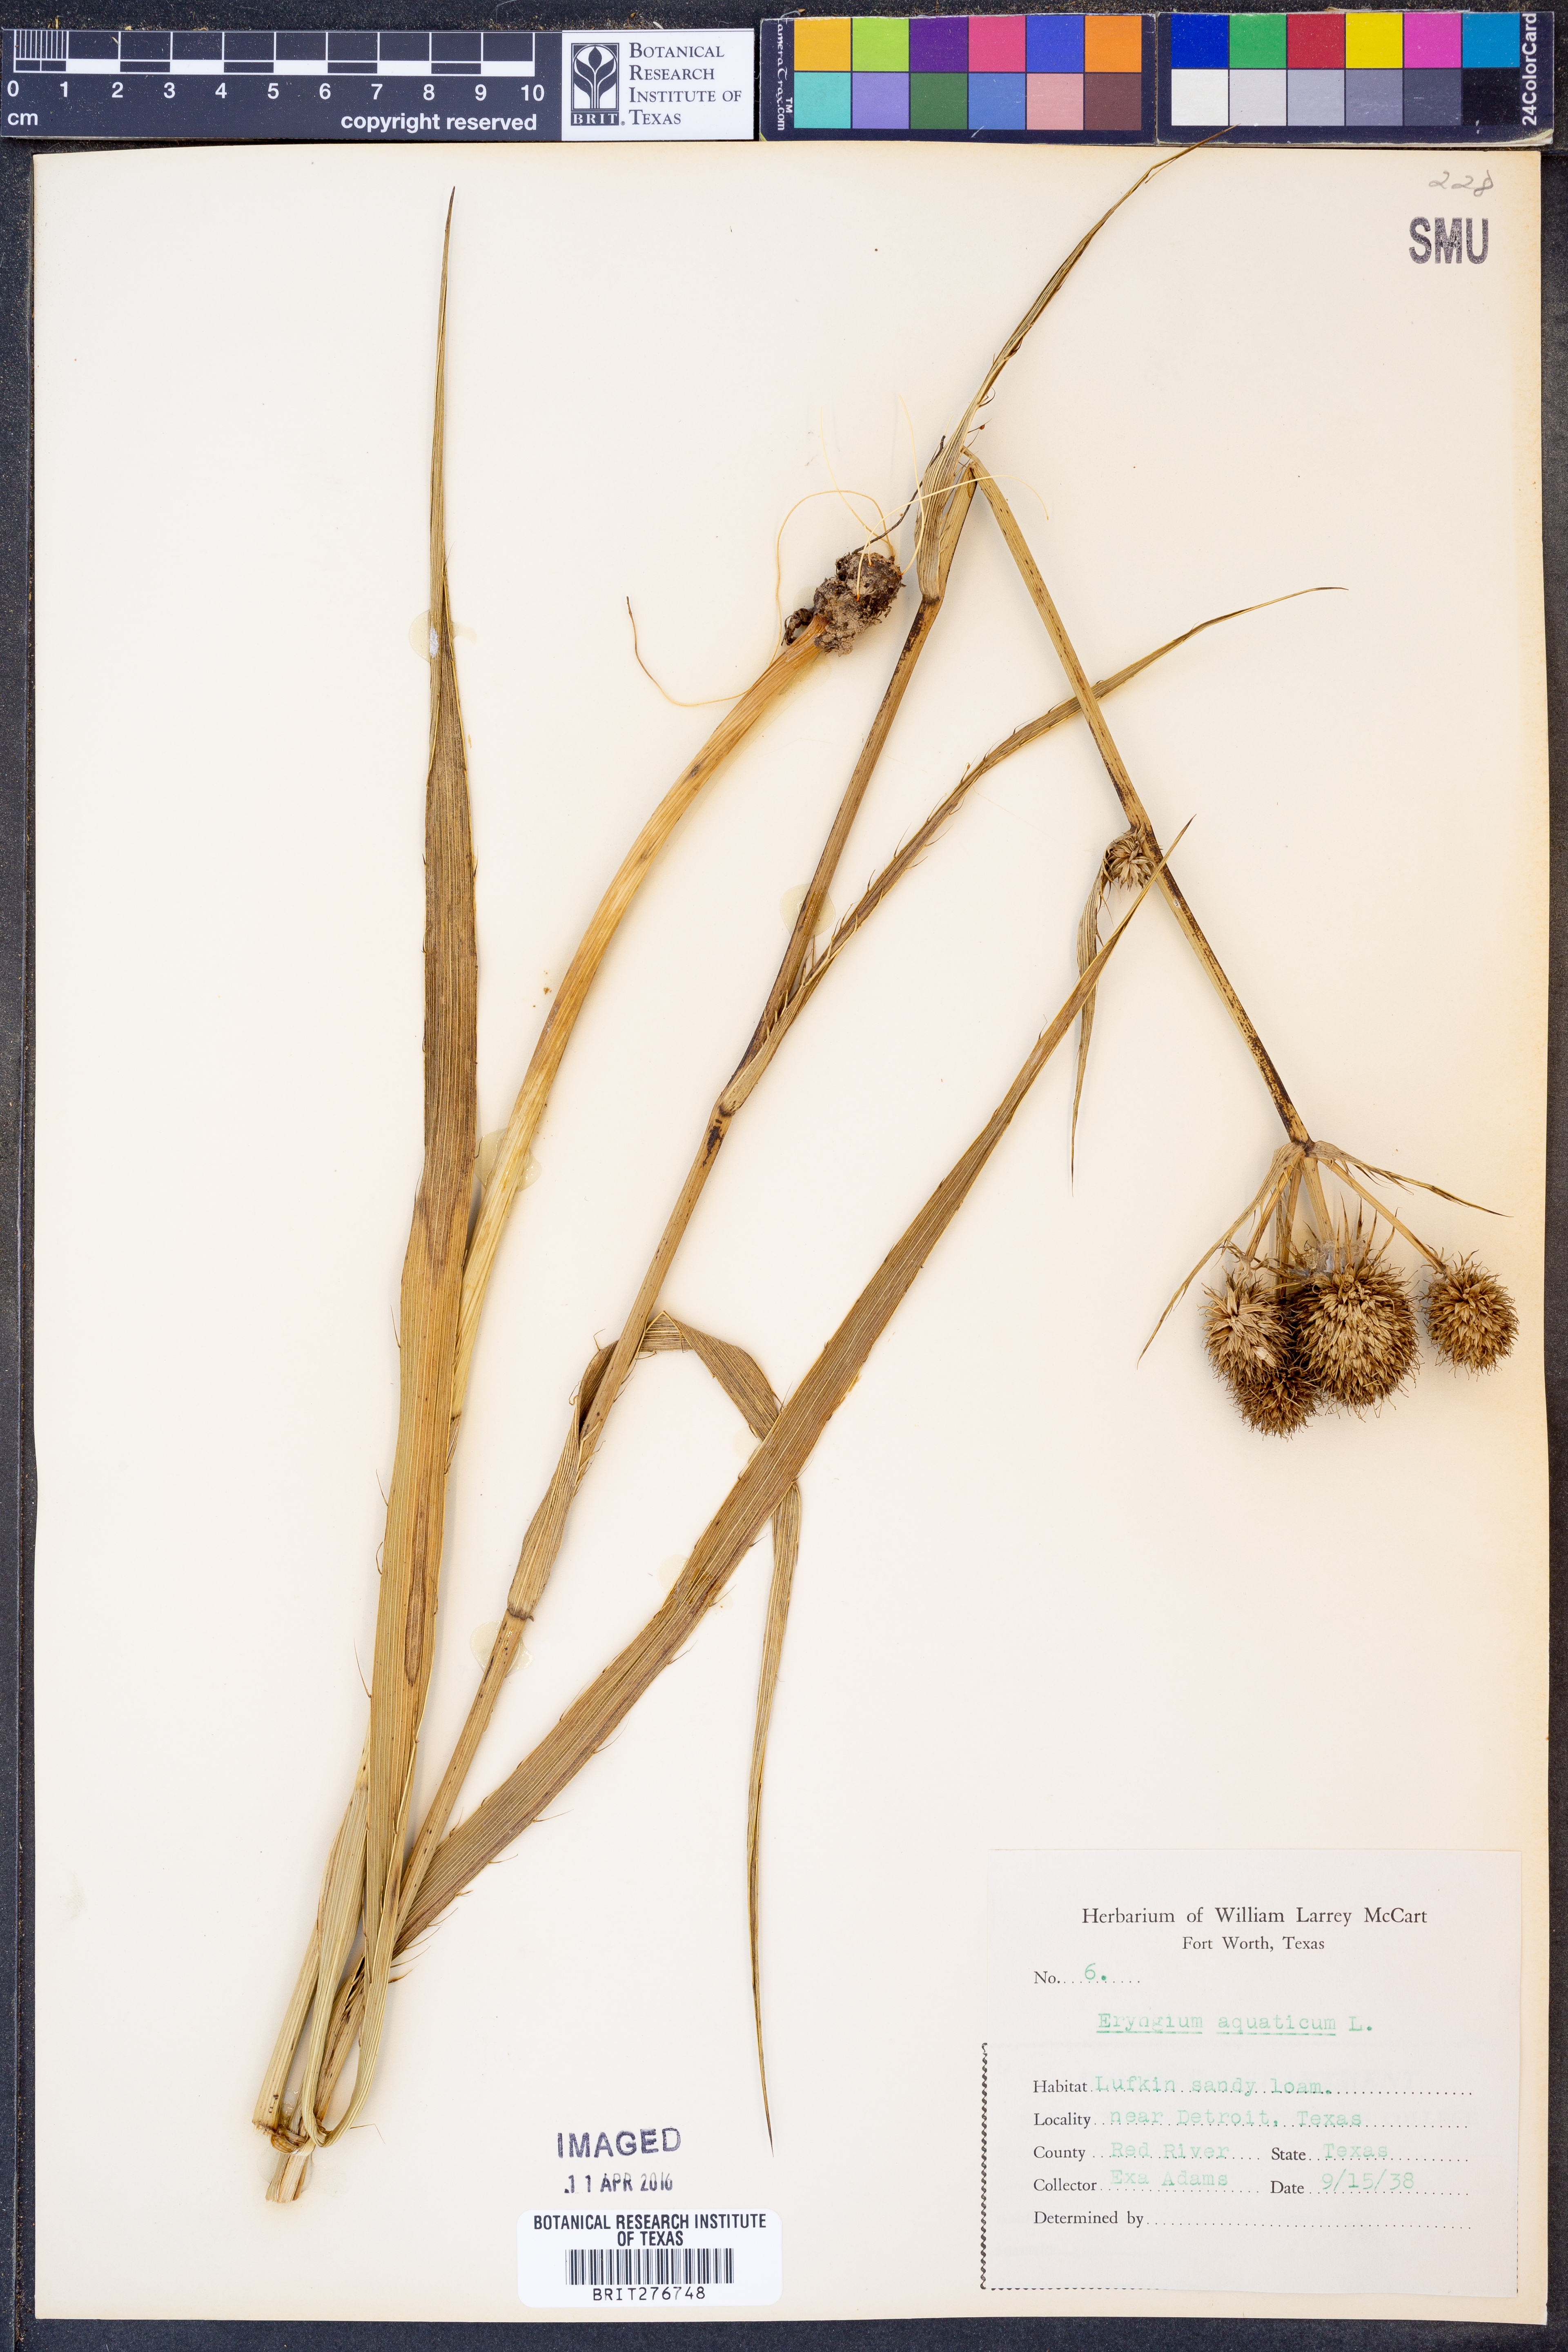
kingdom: Plantae
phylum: Tracheophyta
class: Magnoliopsida
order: Apiales
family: Apiaceae
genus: Eryngium
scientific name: Eryngium aquaticum
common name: Water eryngo
